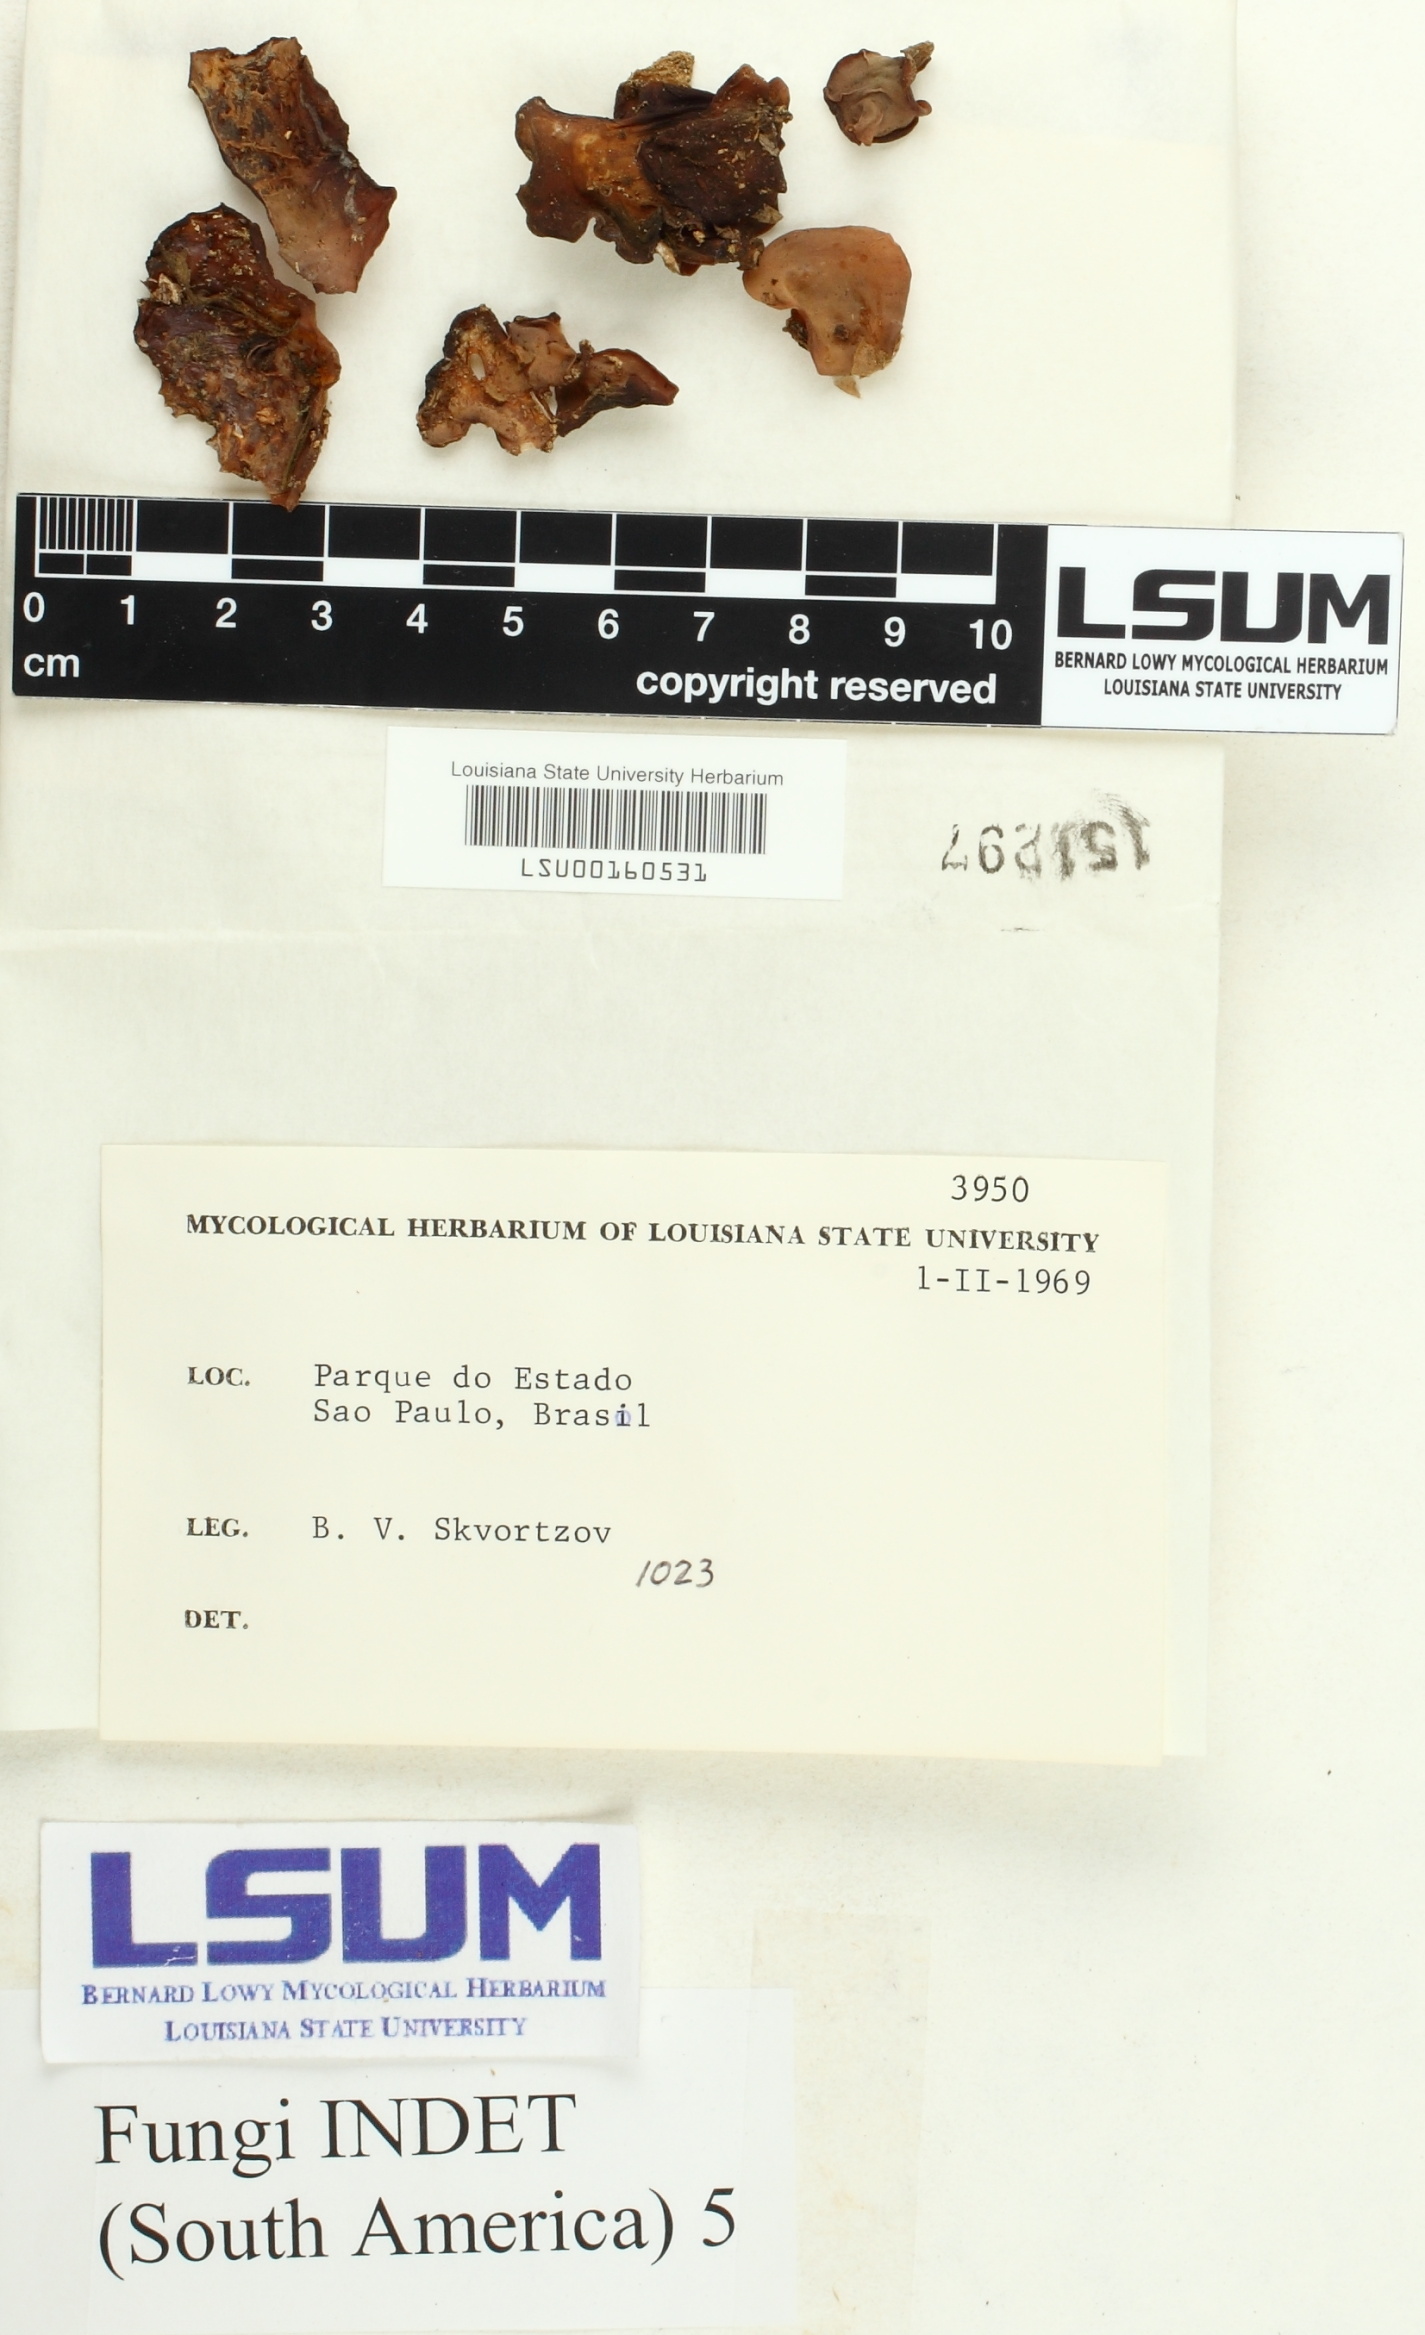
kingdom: Fungi
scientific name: Fungi
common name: Fungi
